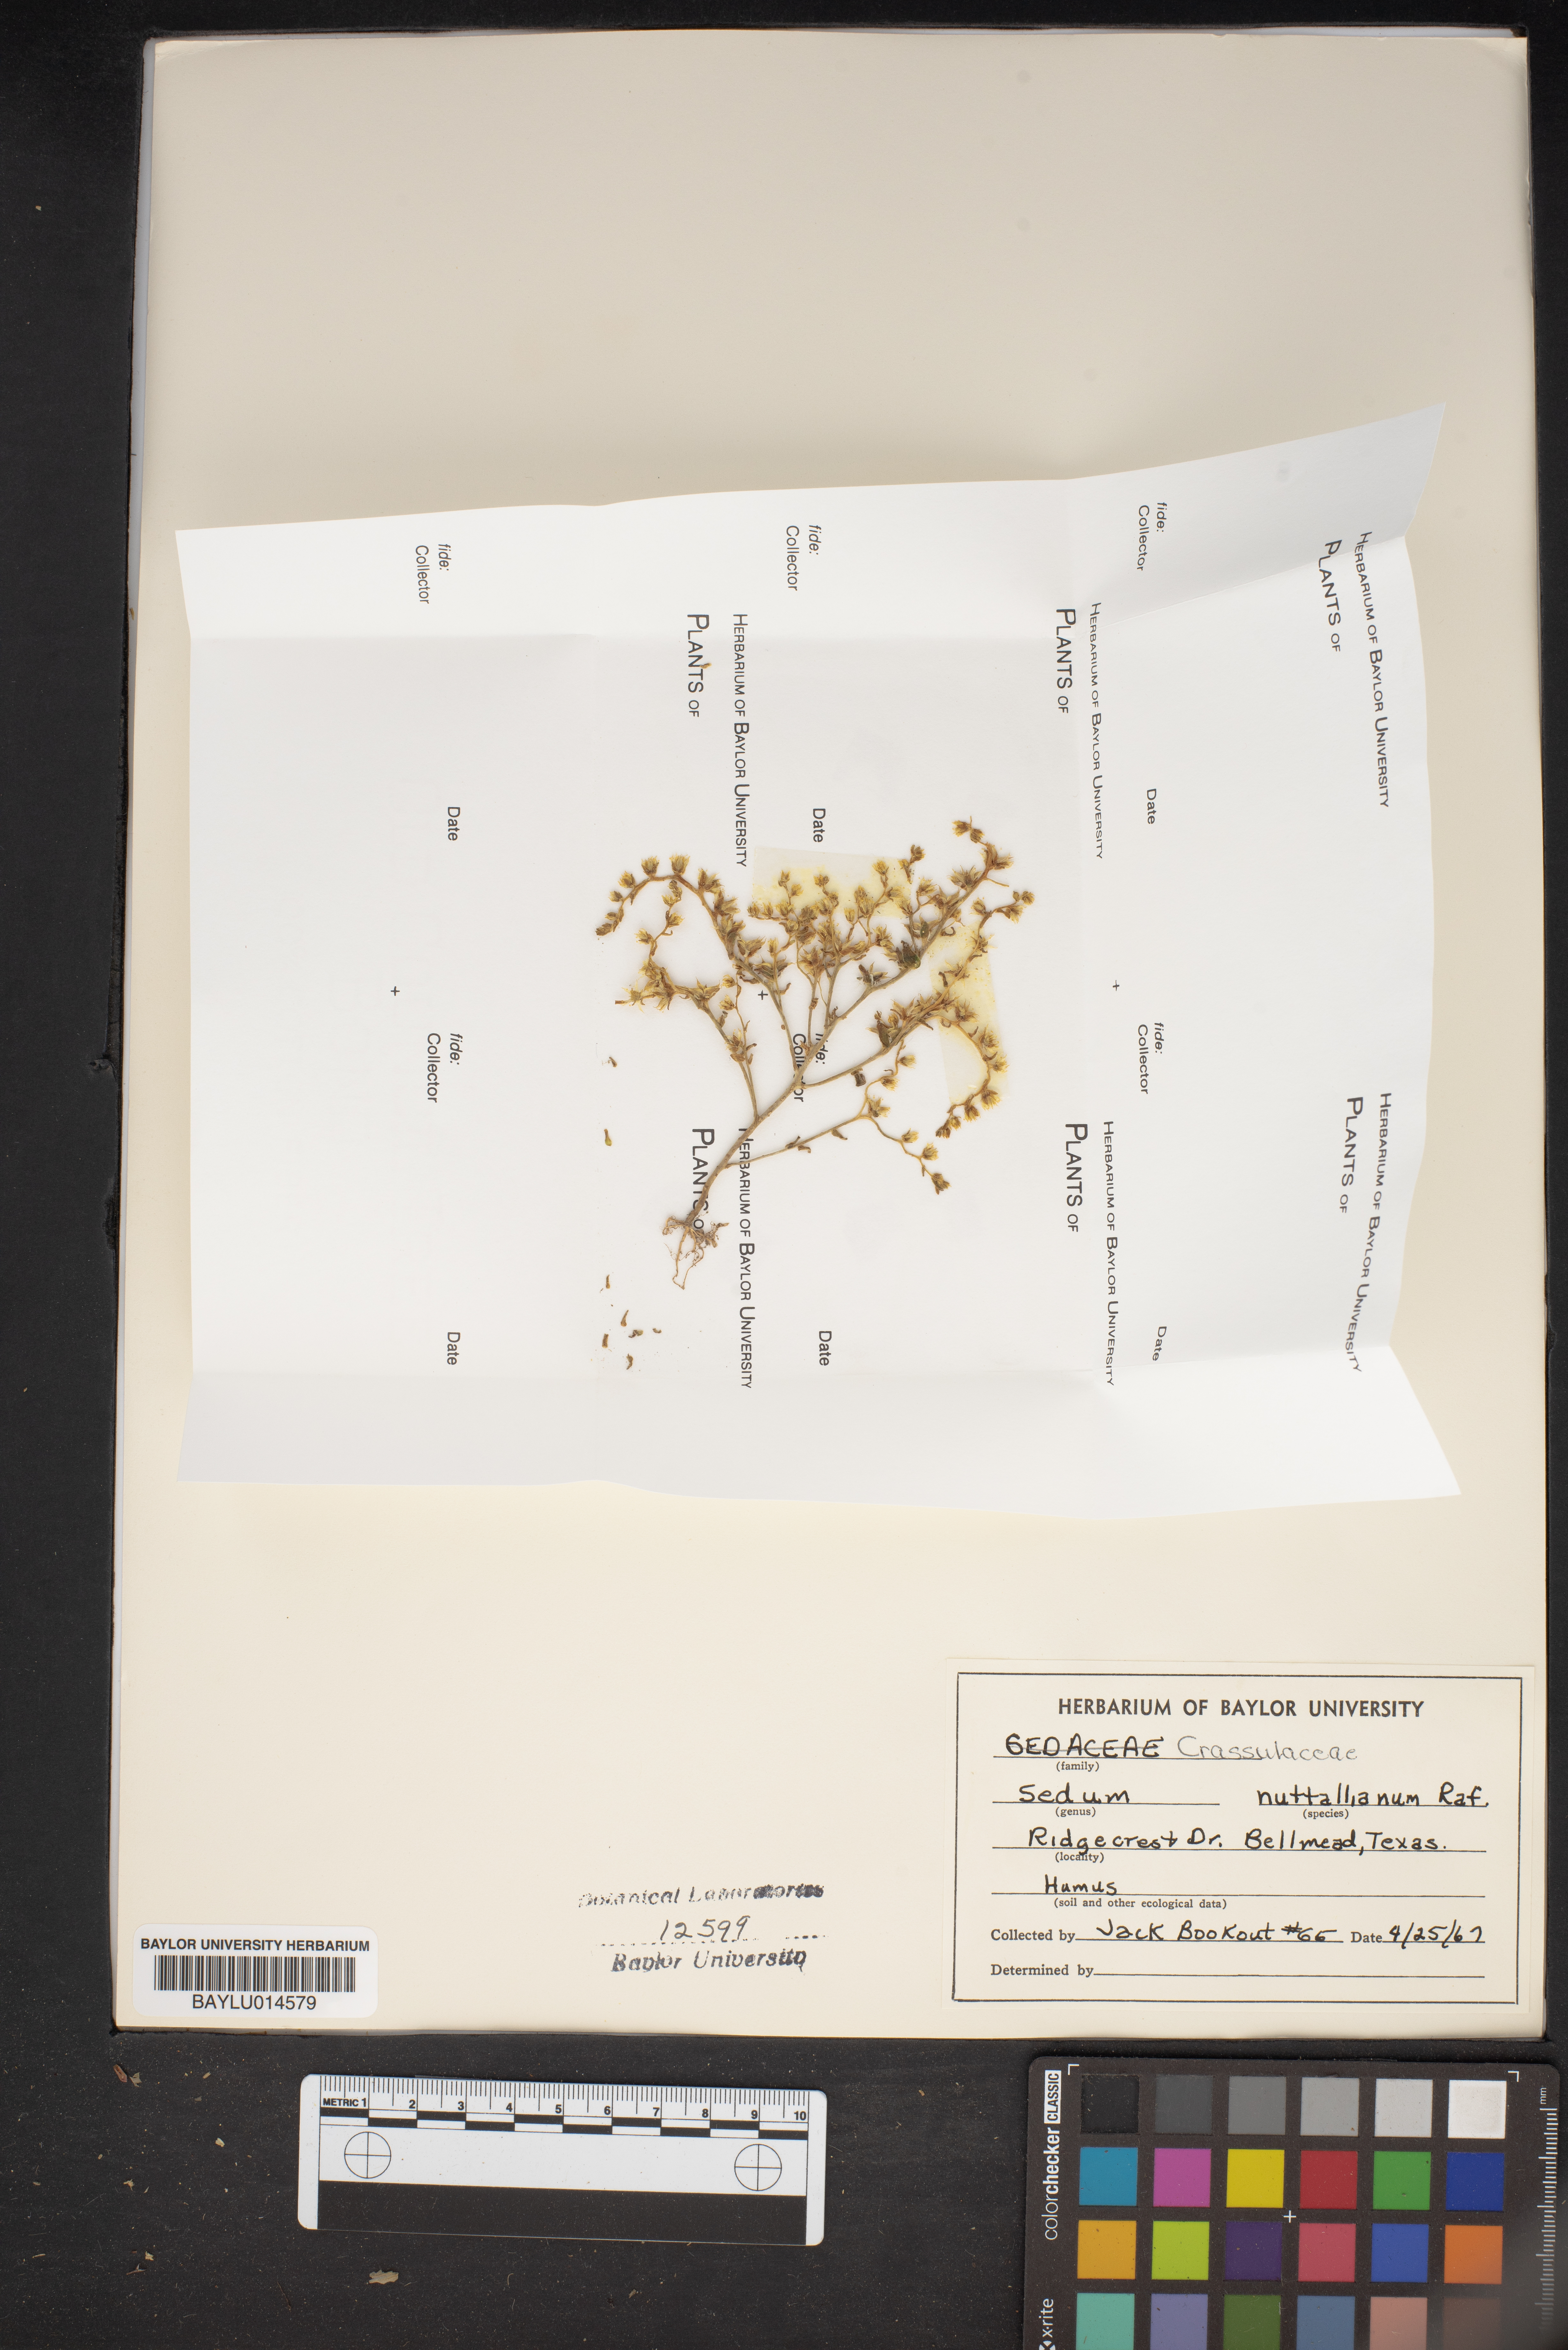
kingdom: Plantae
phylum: Tracheophyta
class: Magnoliopsida
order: Saxifragales
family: Crassulaceae
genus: Sedum
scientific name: Sedum nuttallii
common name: Yellow stonecrop
